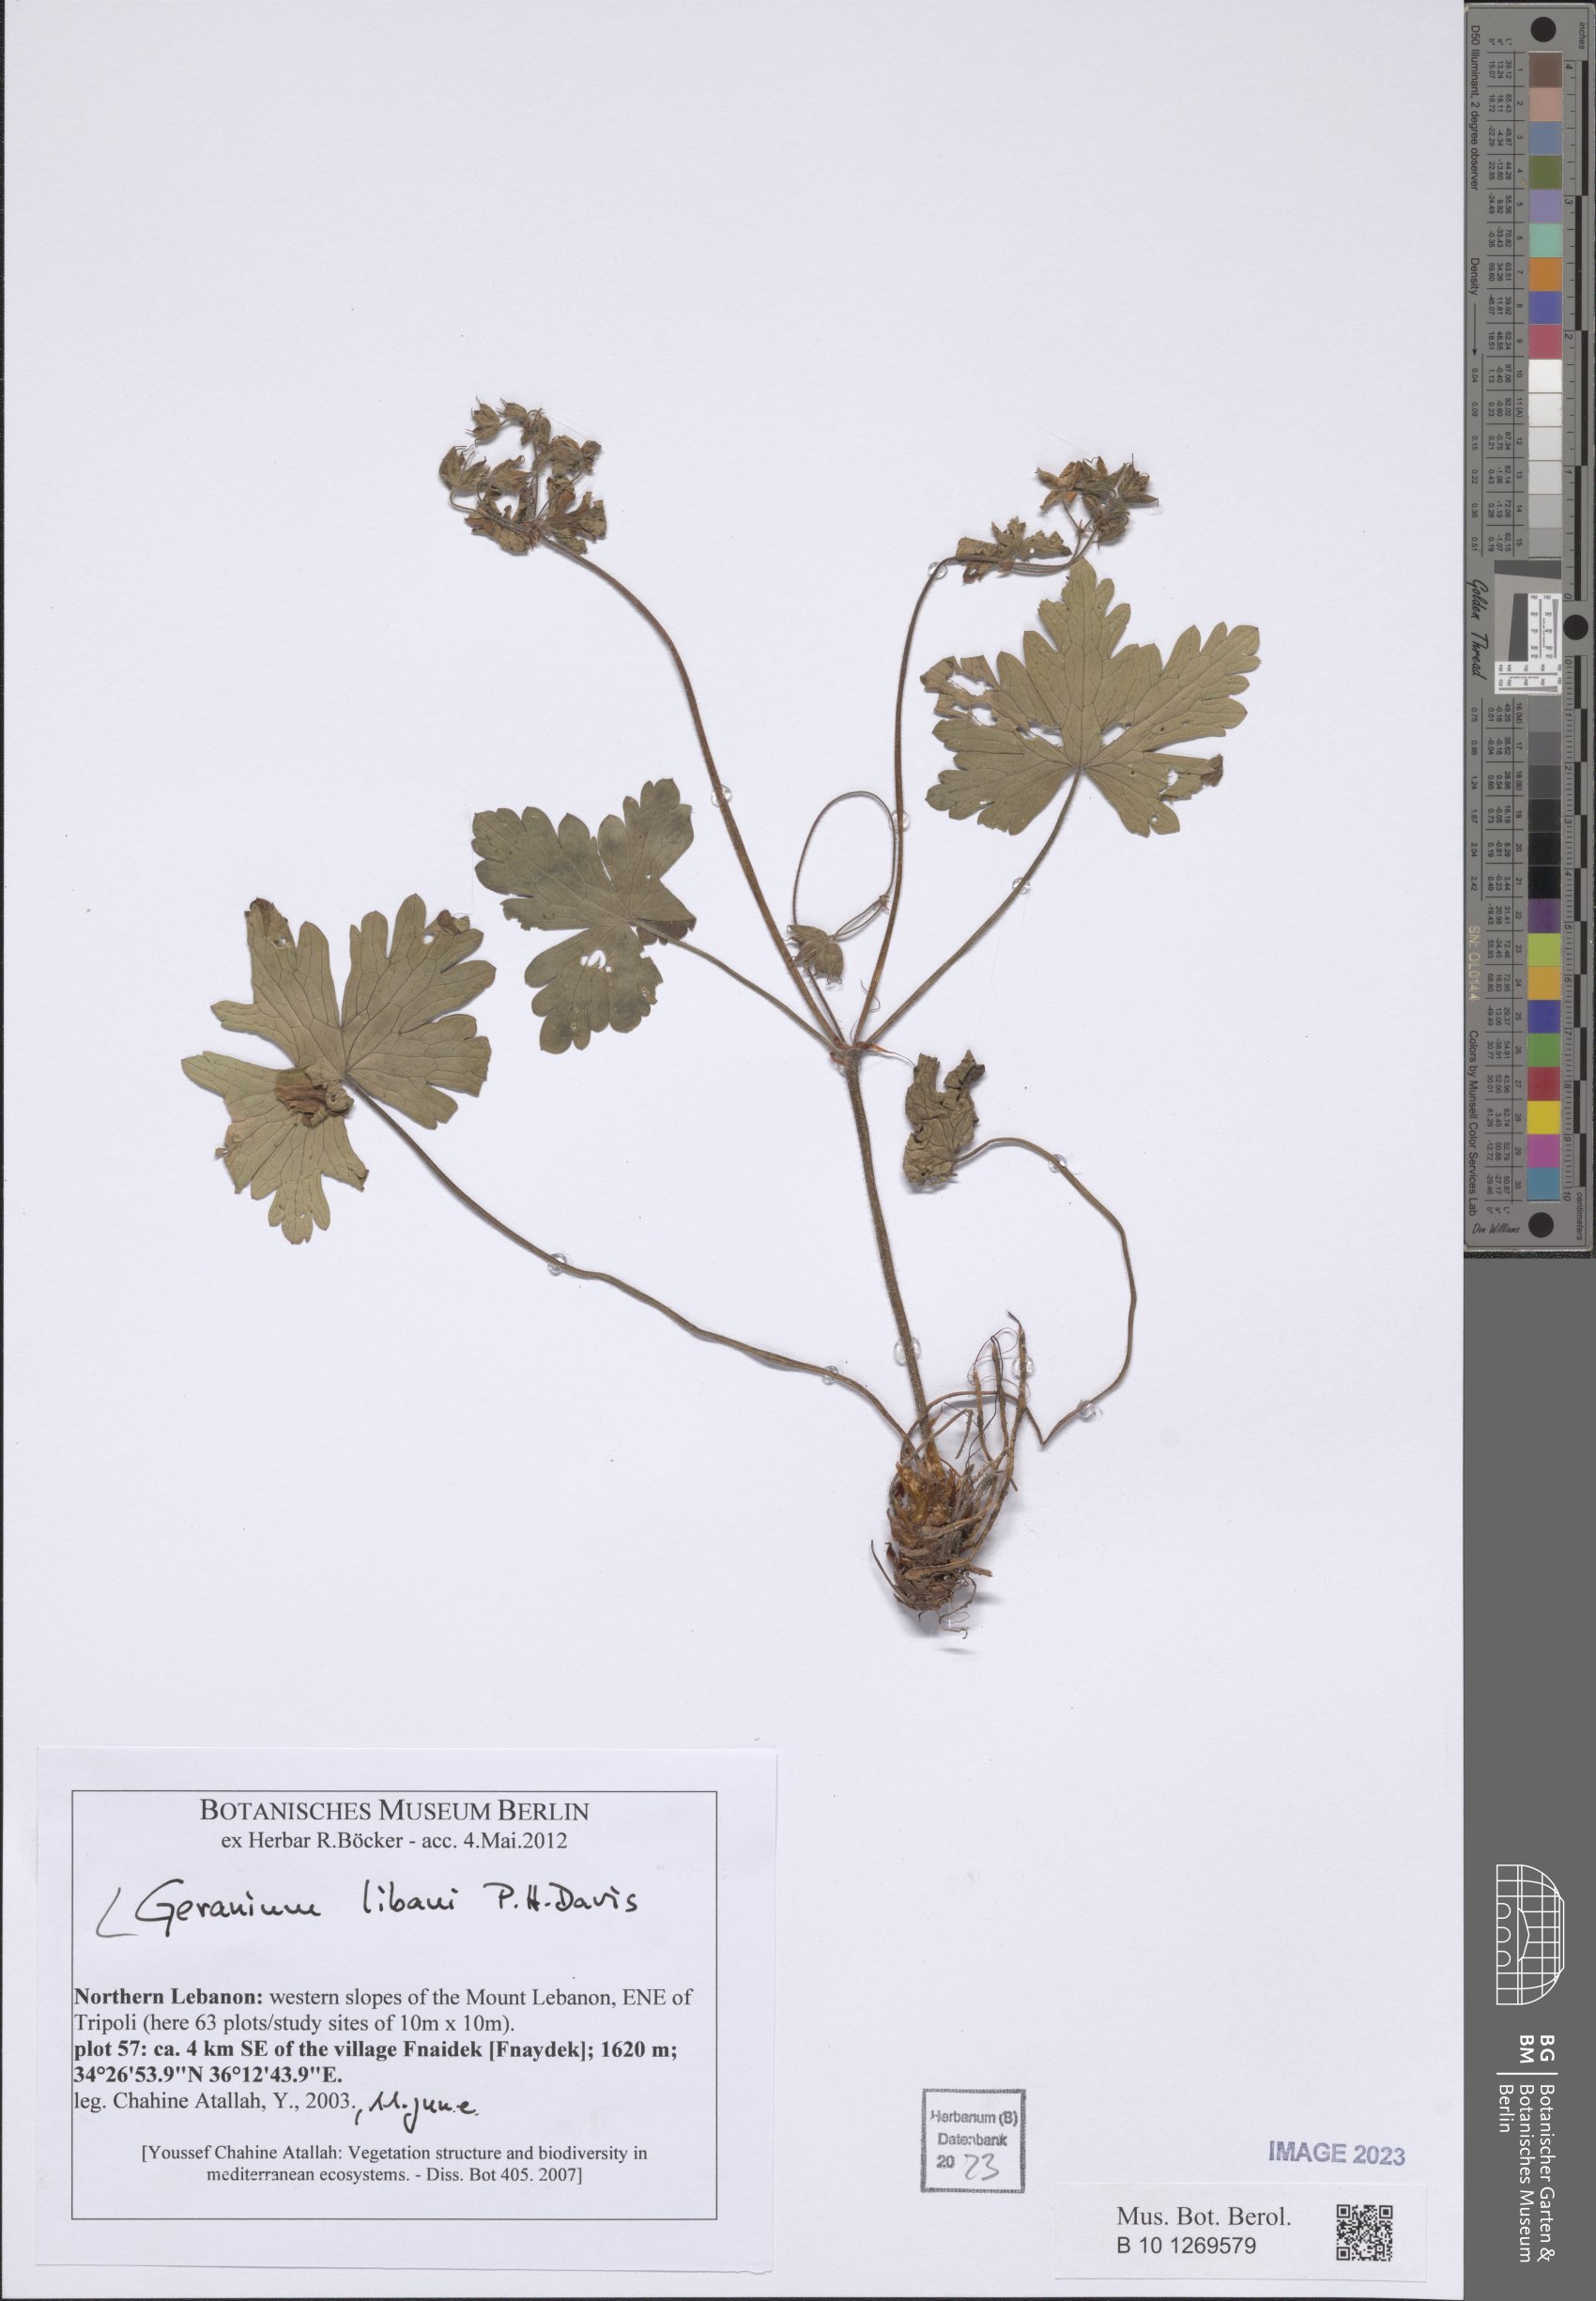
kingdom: Plantae
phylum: Tracheophyta
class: Magnoliopsida
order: Geraniales
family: Geraniaceae
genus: Geranium
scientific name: Geranium libani
